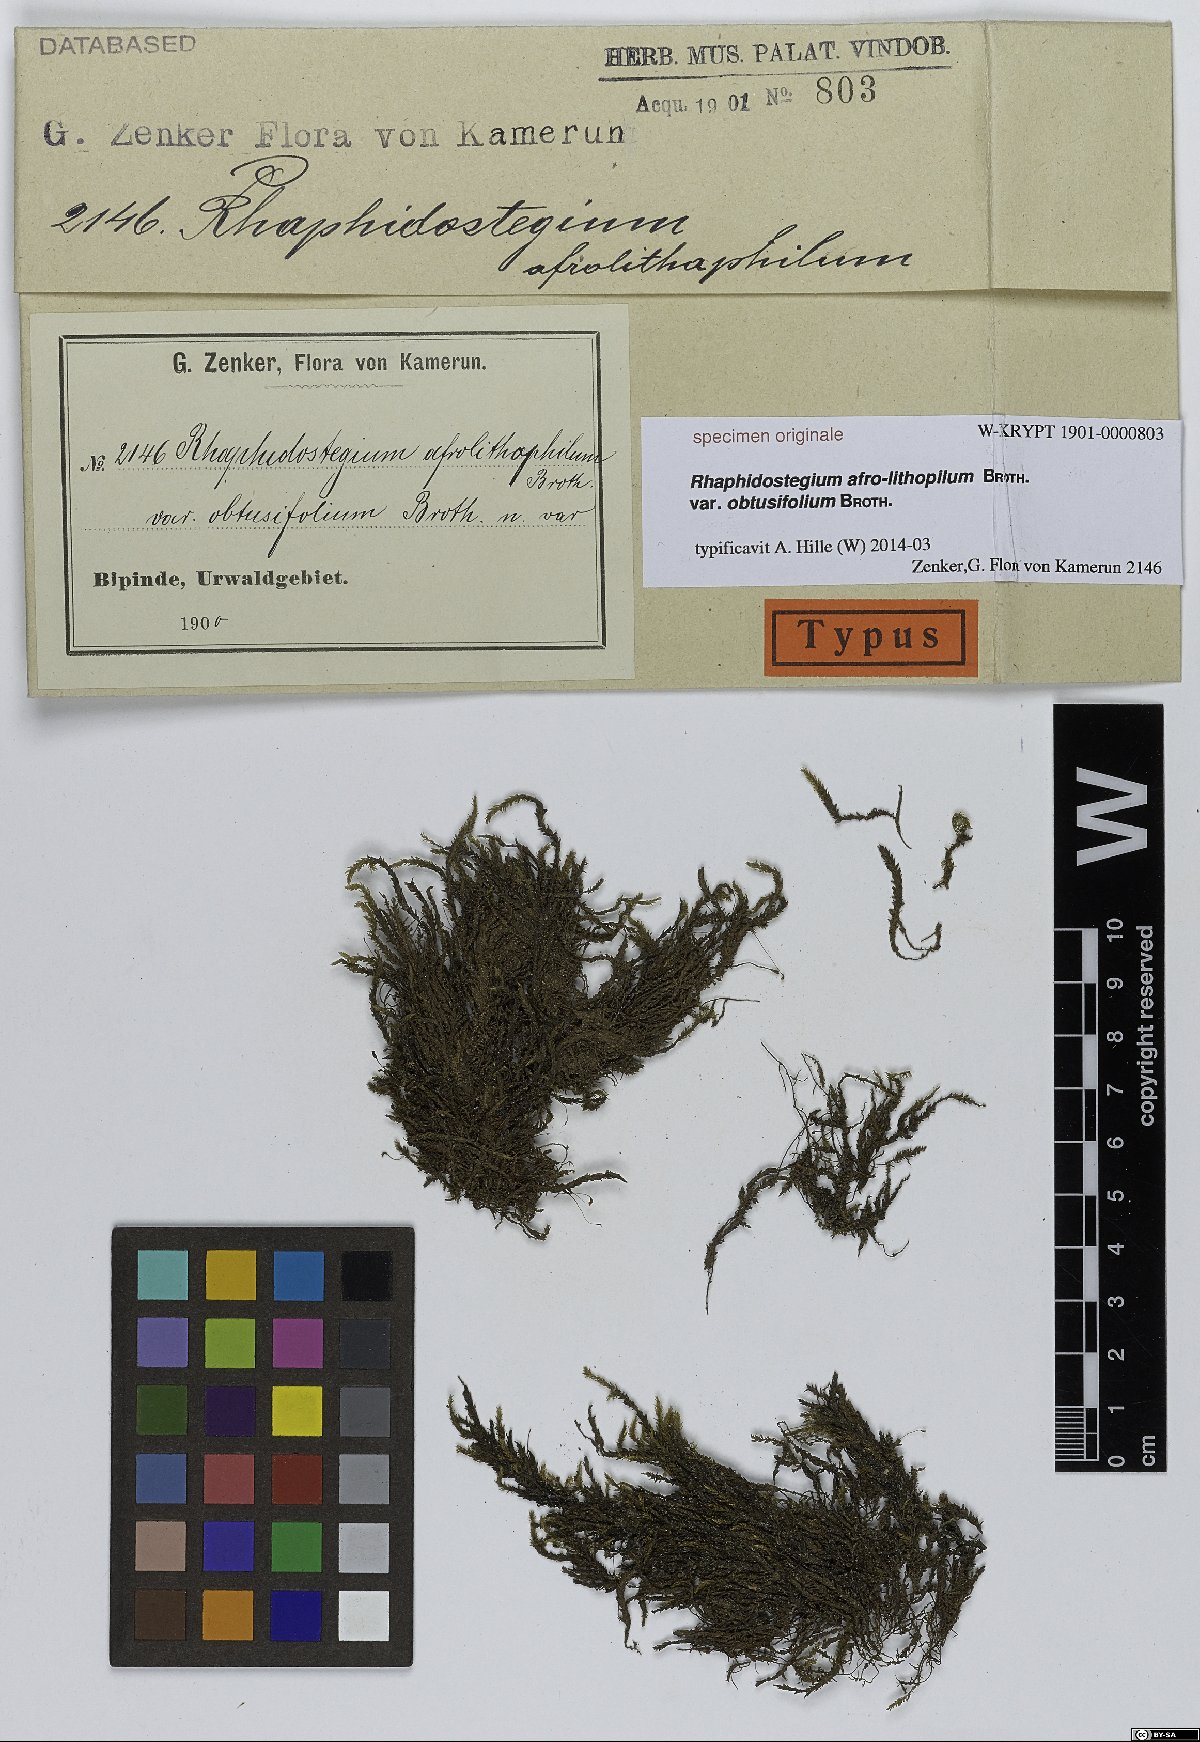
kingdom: Plantae
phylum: Bryophyta
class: Bryopsida
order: Hypnales
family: Sematophyllaceae
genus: Rhaphidostegium
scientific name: Rhaphidostegium
